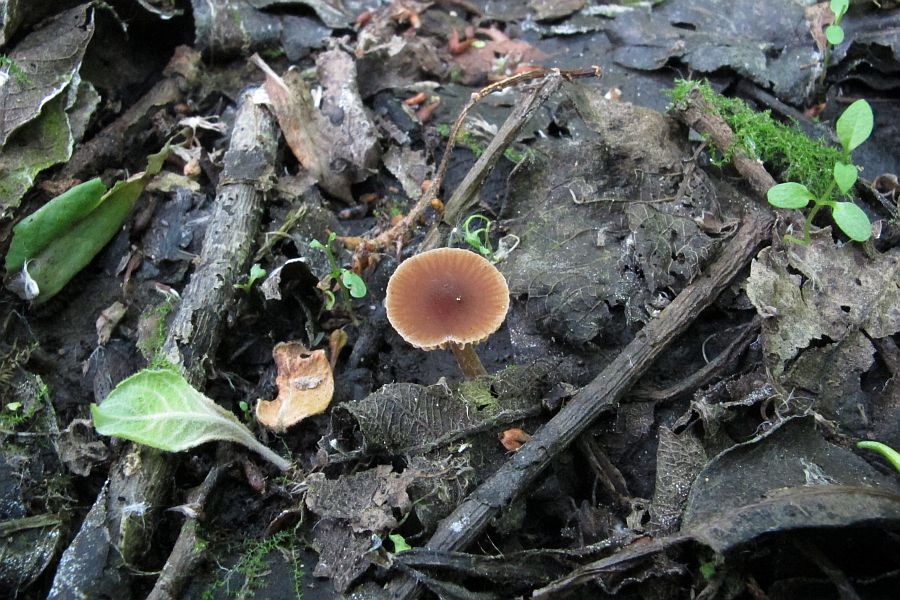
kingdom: Fungi
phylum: Basidiomycota
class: Agaricomycetes
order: Agaricales
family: Hymenogastraceae
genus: Naucoria
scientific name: Naucoria salicis
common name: pile-knaphat
